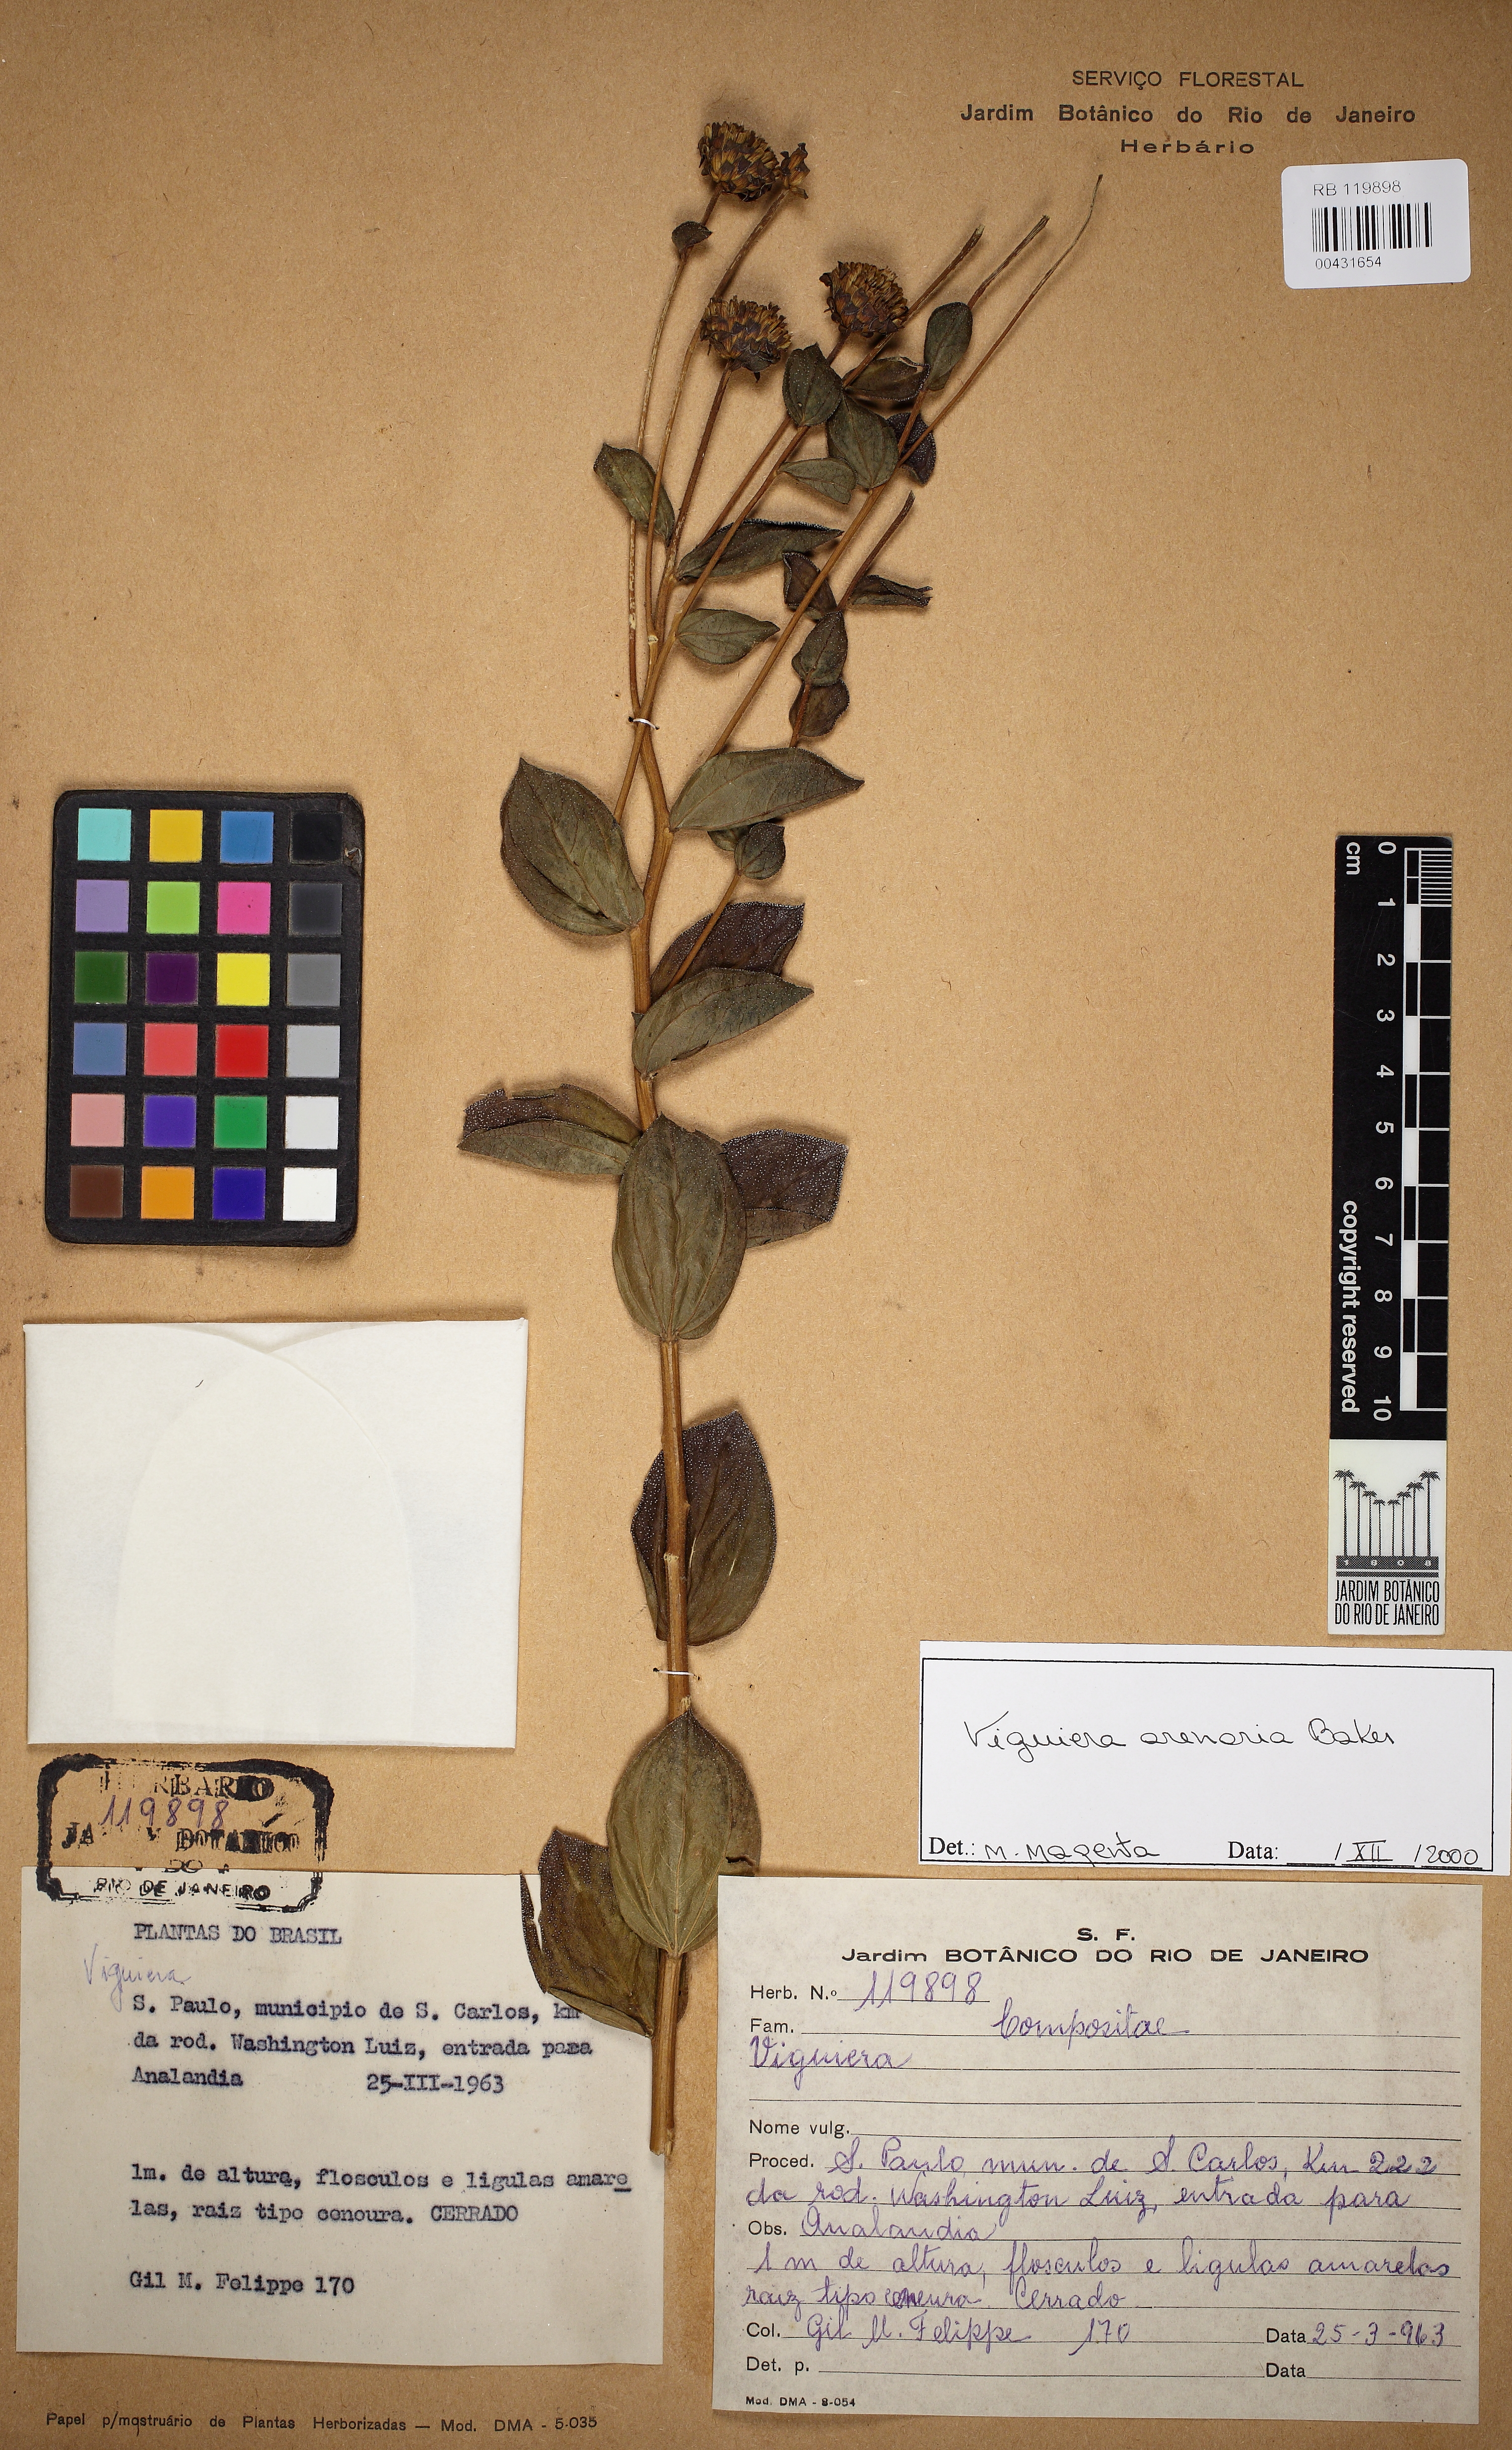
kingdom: Plantae
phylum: Tracheophyta
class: Magnoliopsida
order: Asterales
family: Asteraceae
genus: Aldama
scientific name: Aldama arenaria
